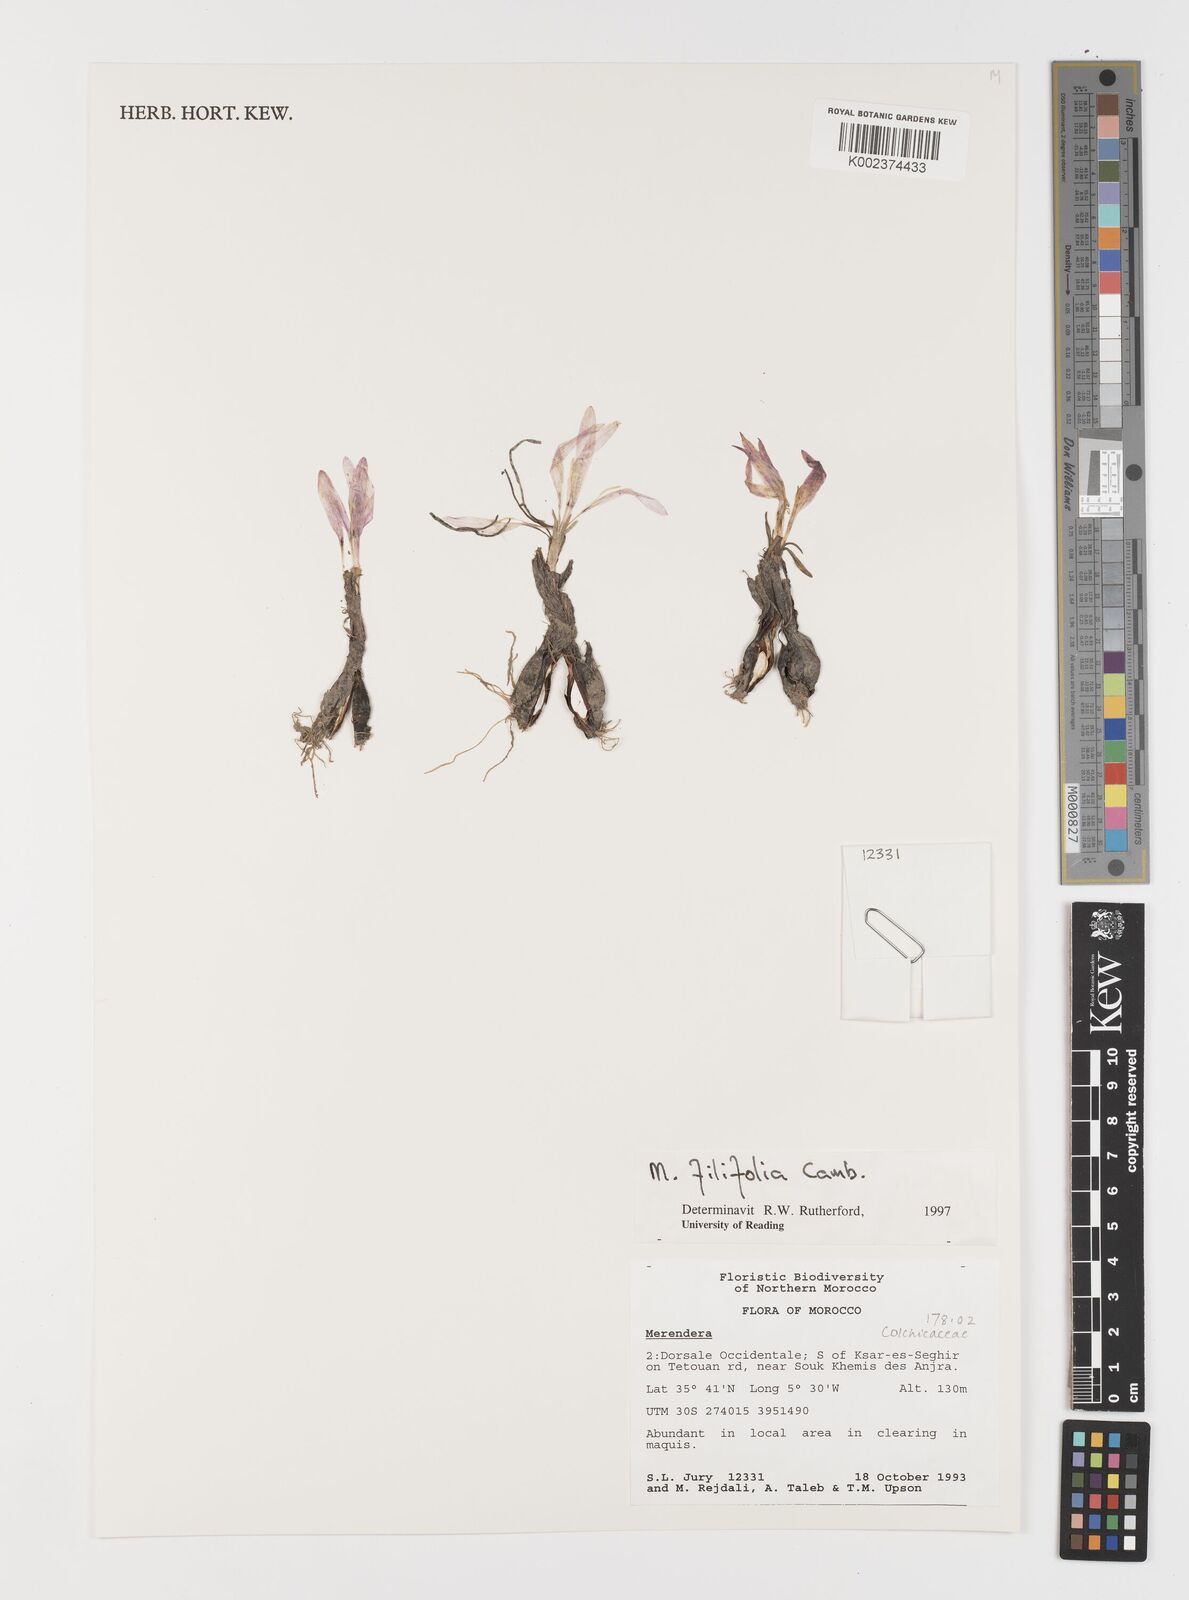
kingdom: Plantae
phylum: Tracheophyta
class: Liliopsida
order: Liliales
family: Colchicaceae
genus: Colchicum
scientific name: Colchicum filifolium
